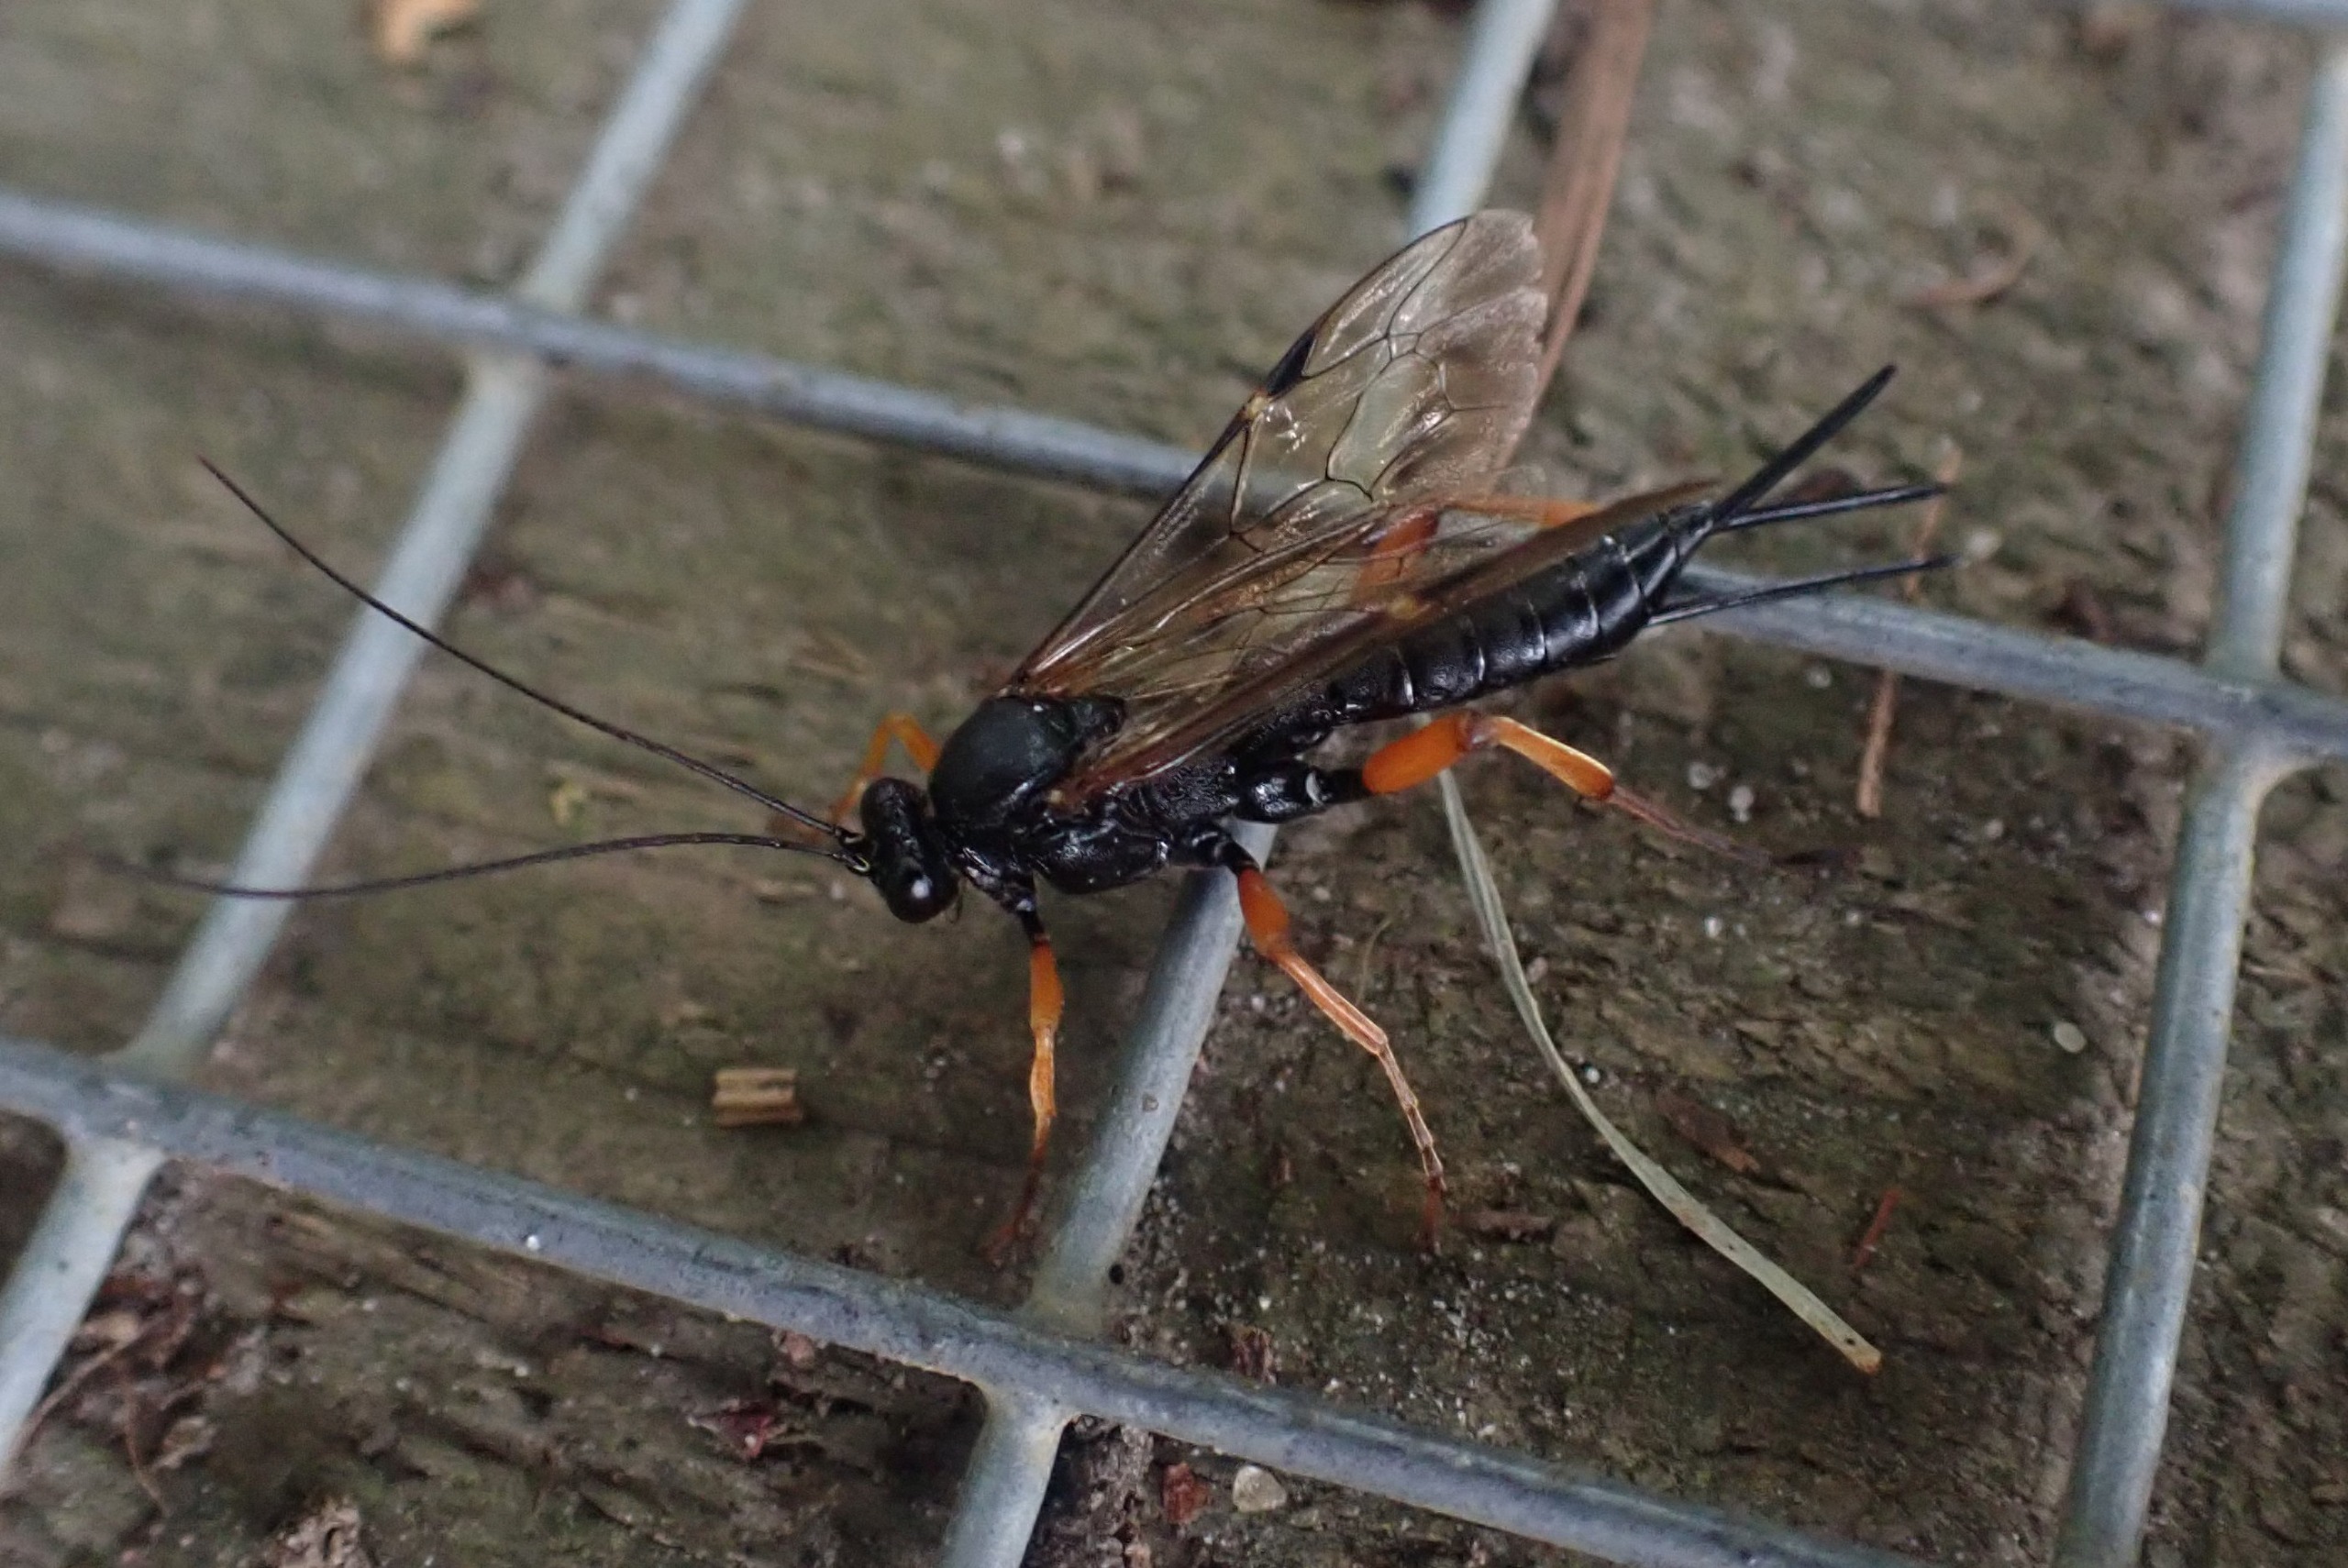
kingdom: Animalia
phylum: Arthropoda
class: Insecta
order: Hymenoptera
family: Ichneumonidae
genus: Pimpla
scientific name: Pimpla rufipes
